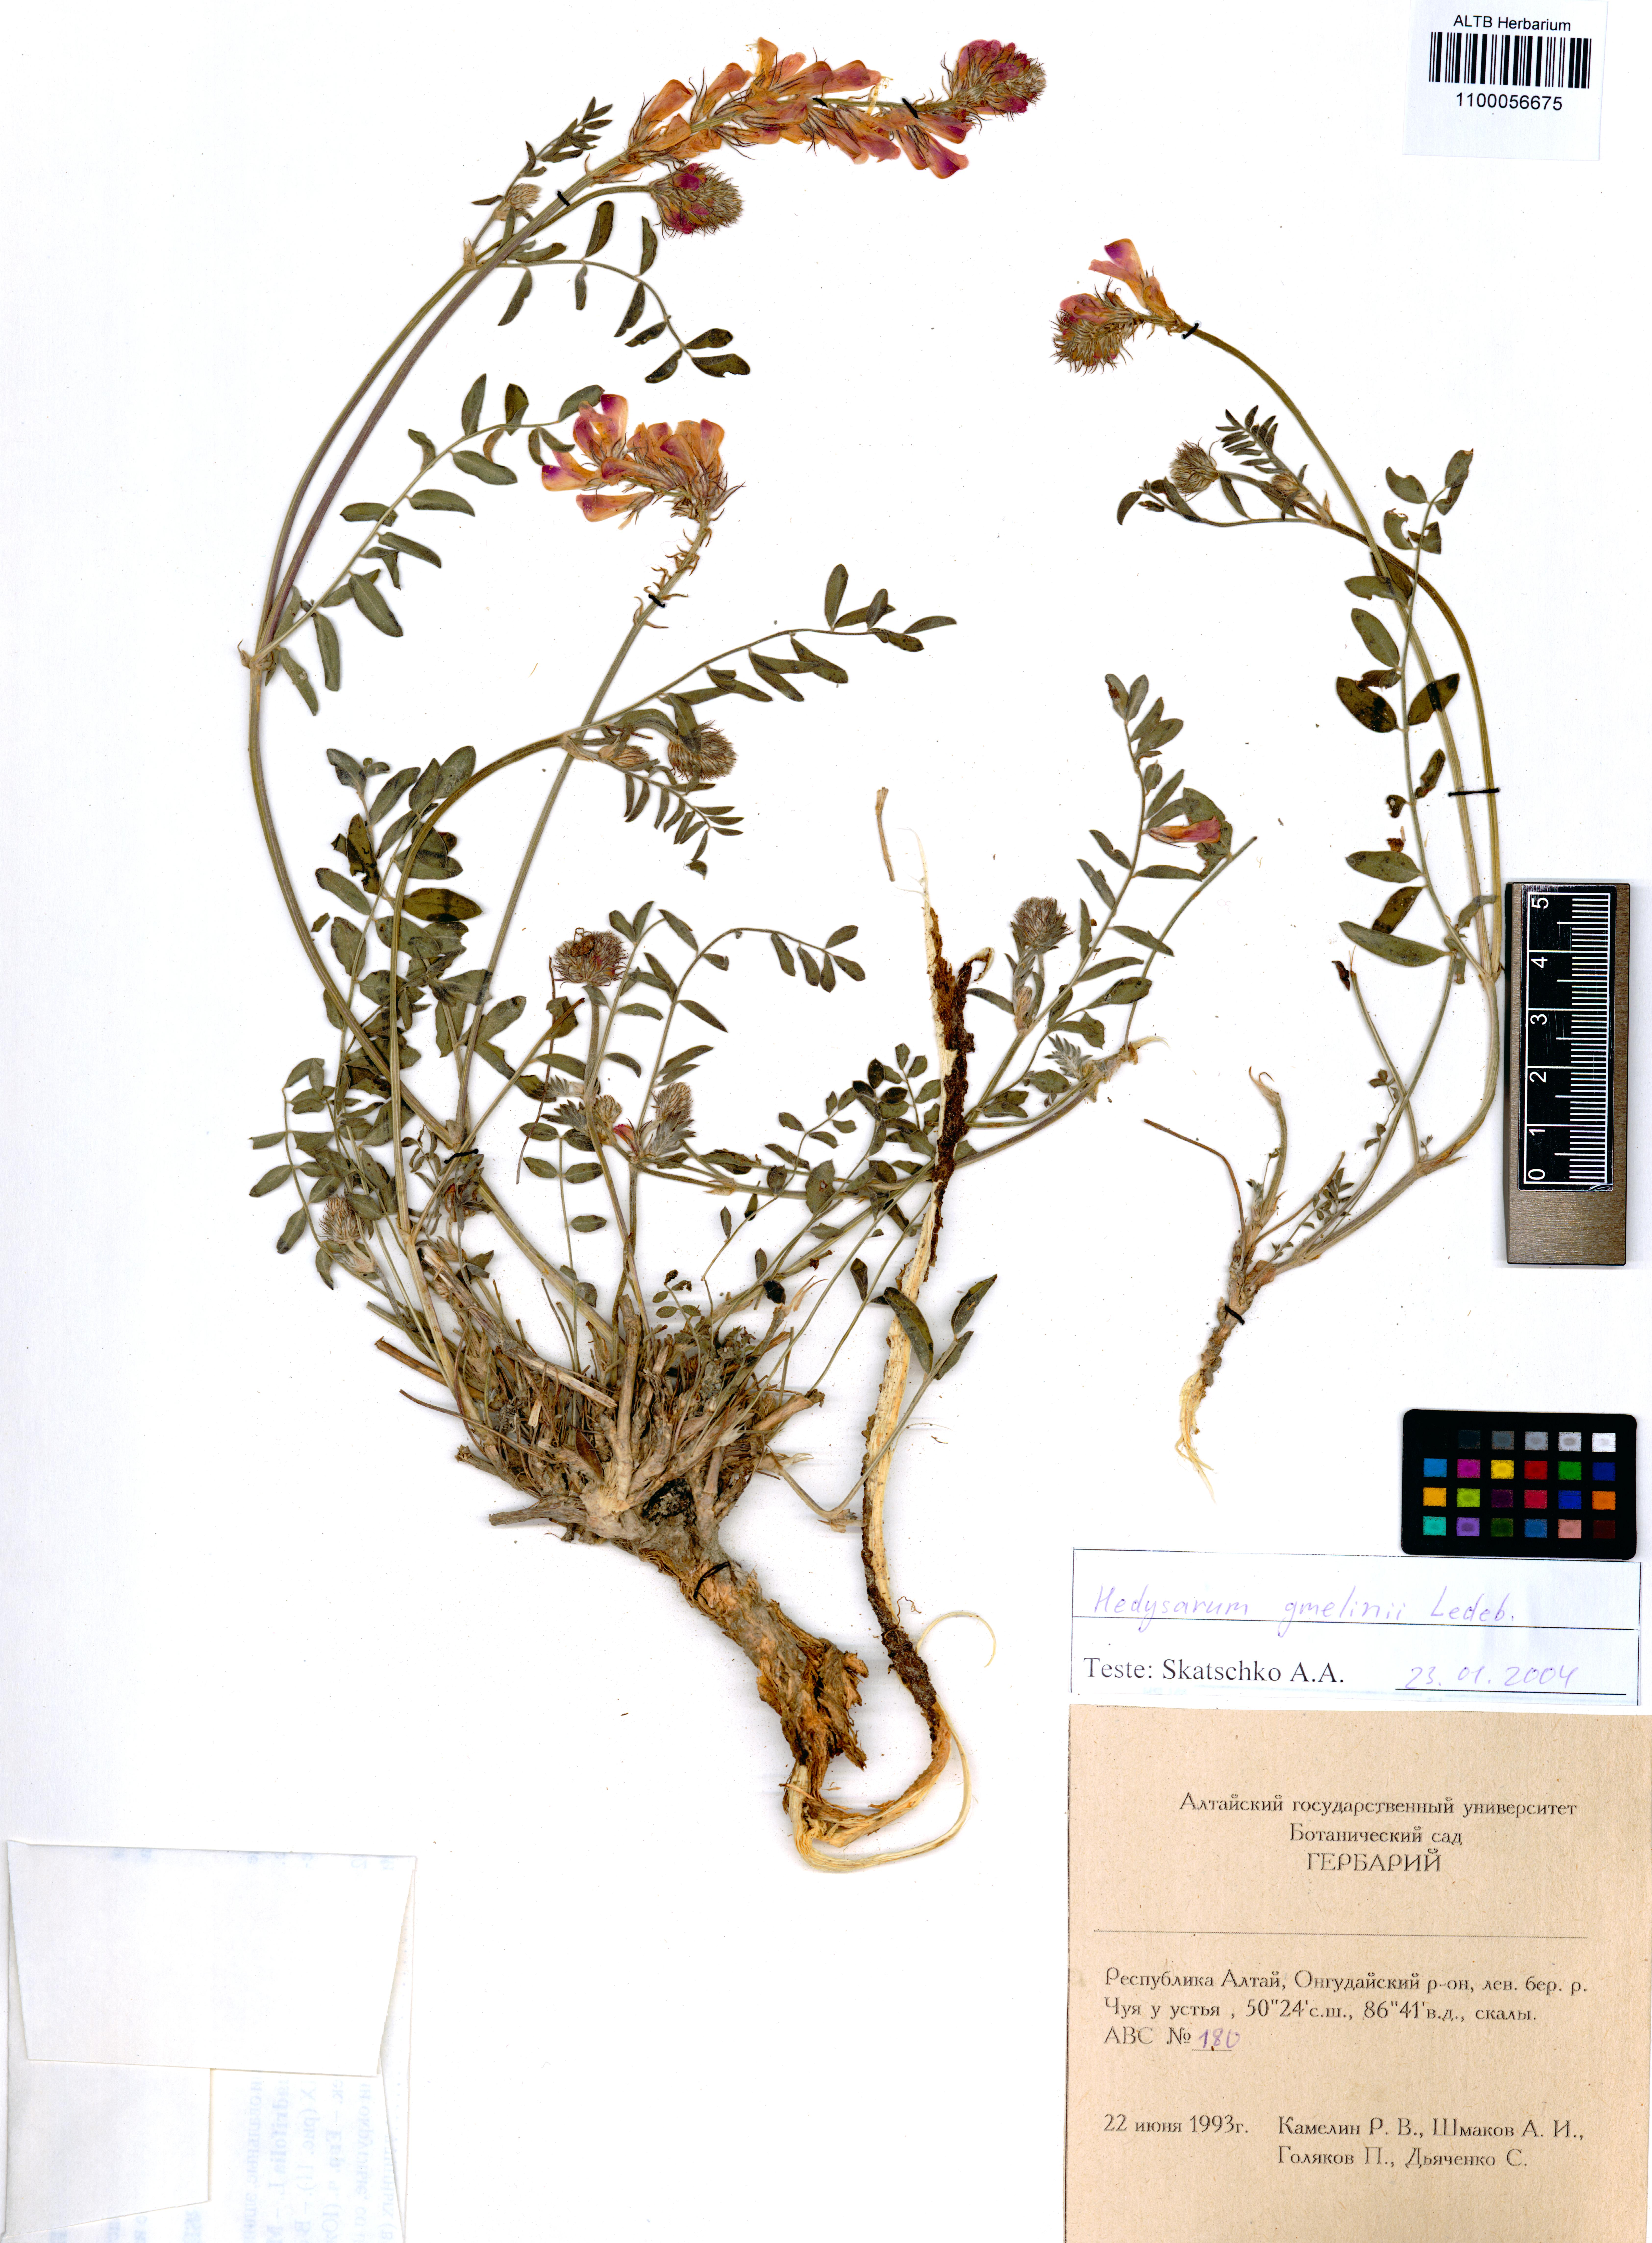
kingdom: Plantae
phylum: Tracheophyta
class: Magnoliopsida
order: Fabales
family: Fabaceae
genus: Hedysarum
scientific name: Hedysarum gmelinii
